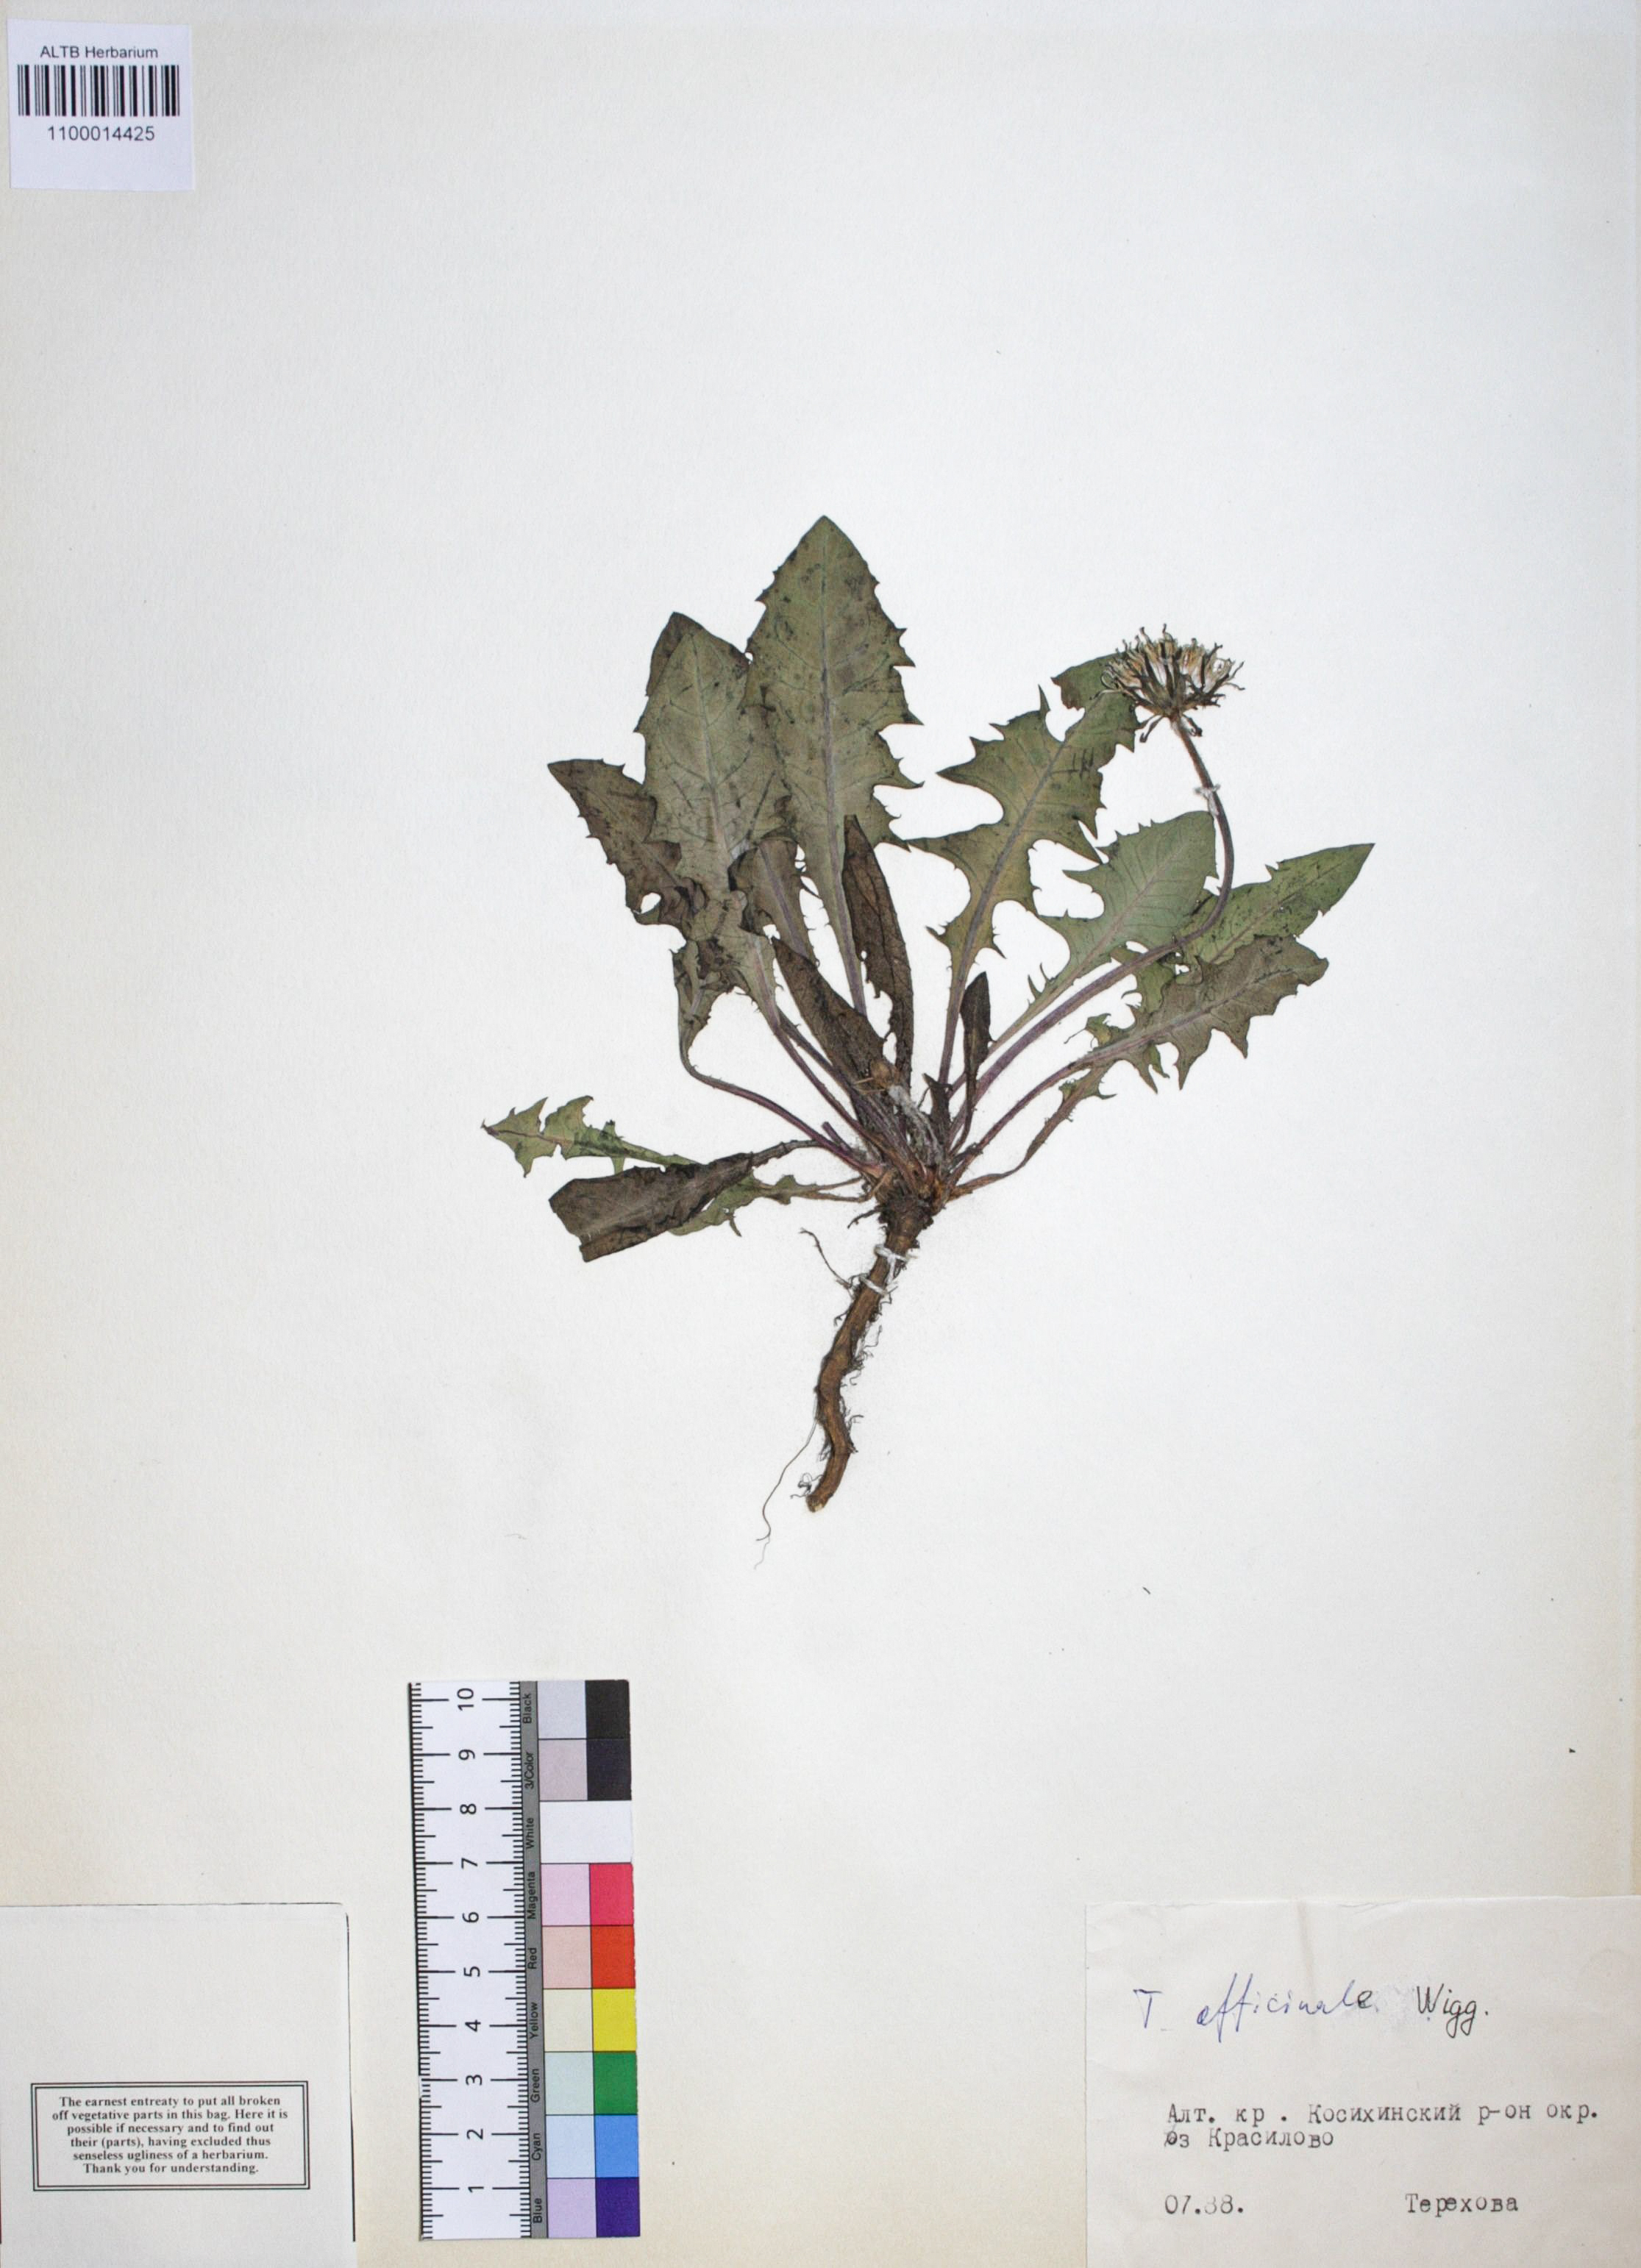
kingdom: Plantae
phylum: Tracheophyta
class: Magnoliopsida
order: Asterales
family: Asteraceae
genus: Taraxacum
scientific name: Taraxacum officinale
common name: Common dandelion
